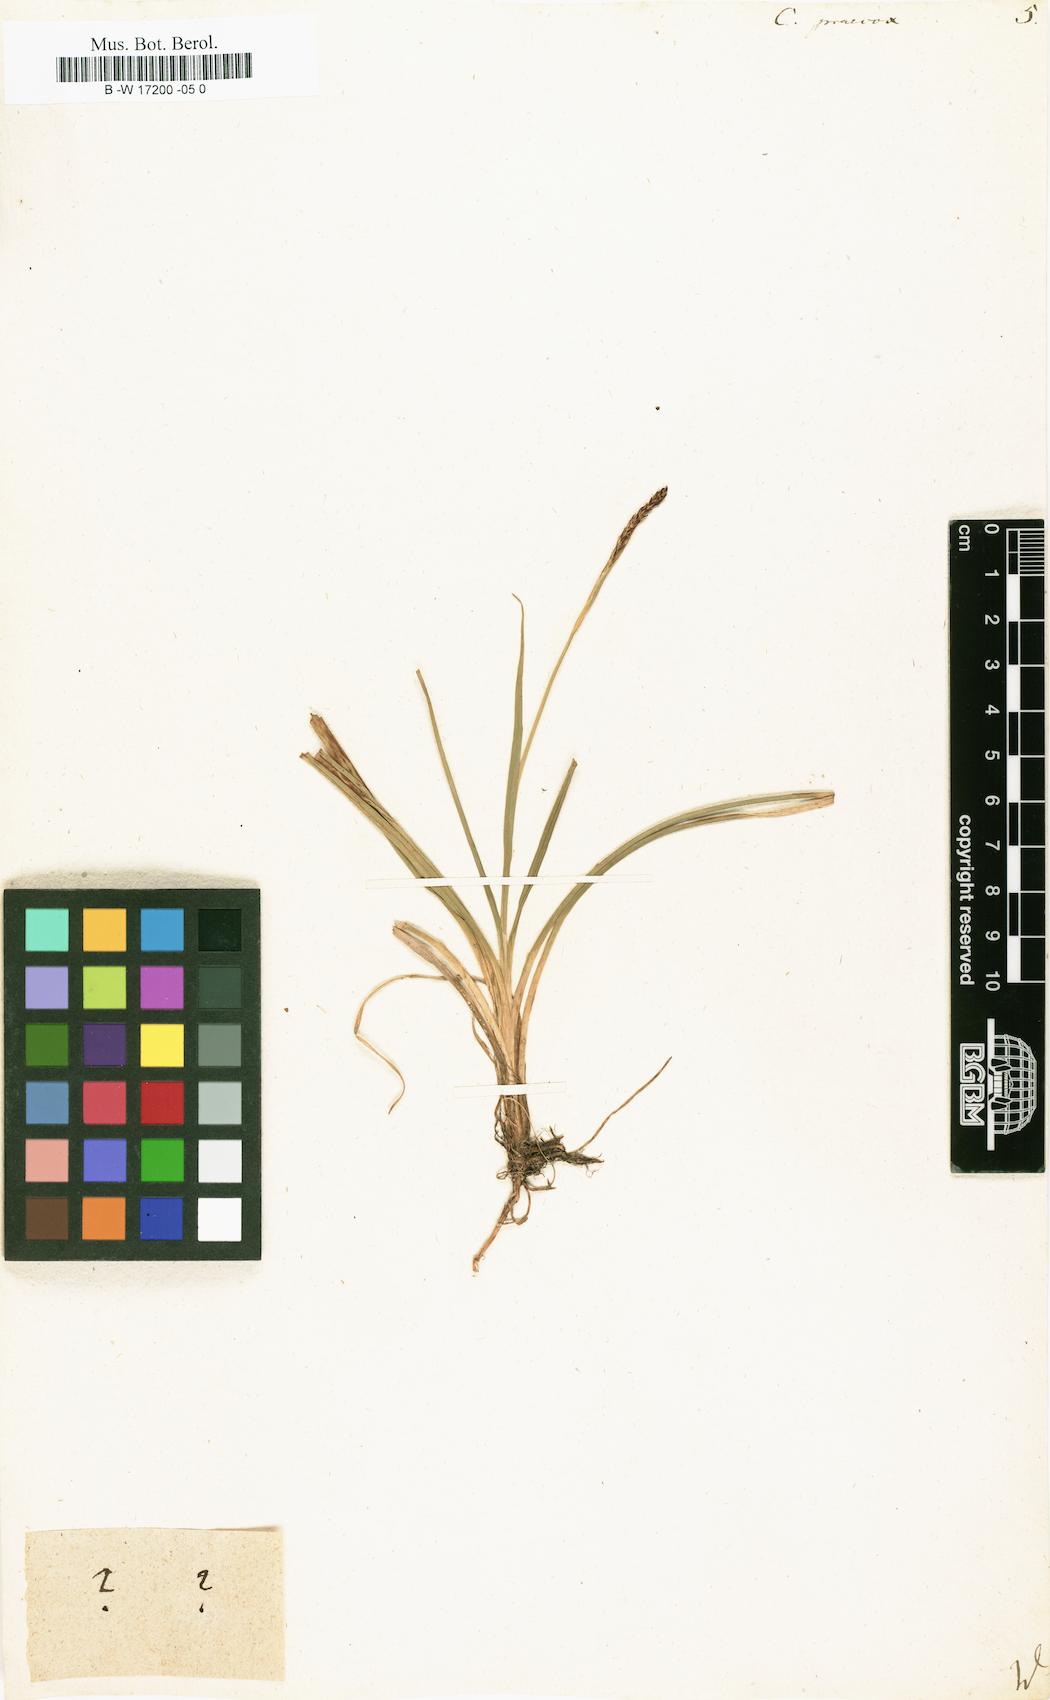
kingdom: Plantae
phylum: Tracheophyta
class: Liliopsida
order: Poales
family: Cyperaceae
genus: Carex
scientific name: Carex praecox
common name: Early sedge
